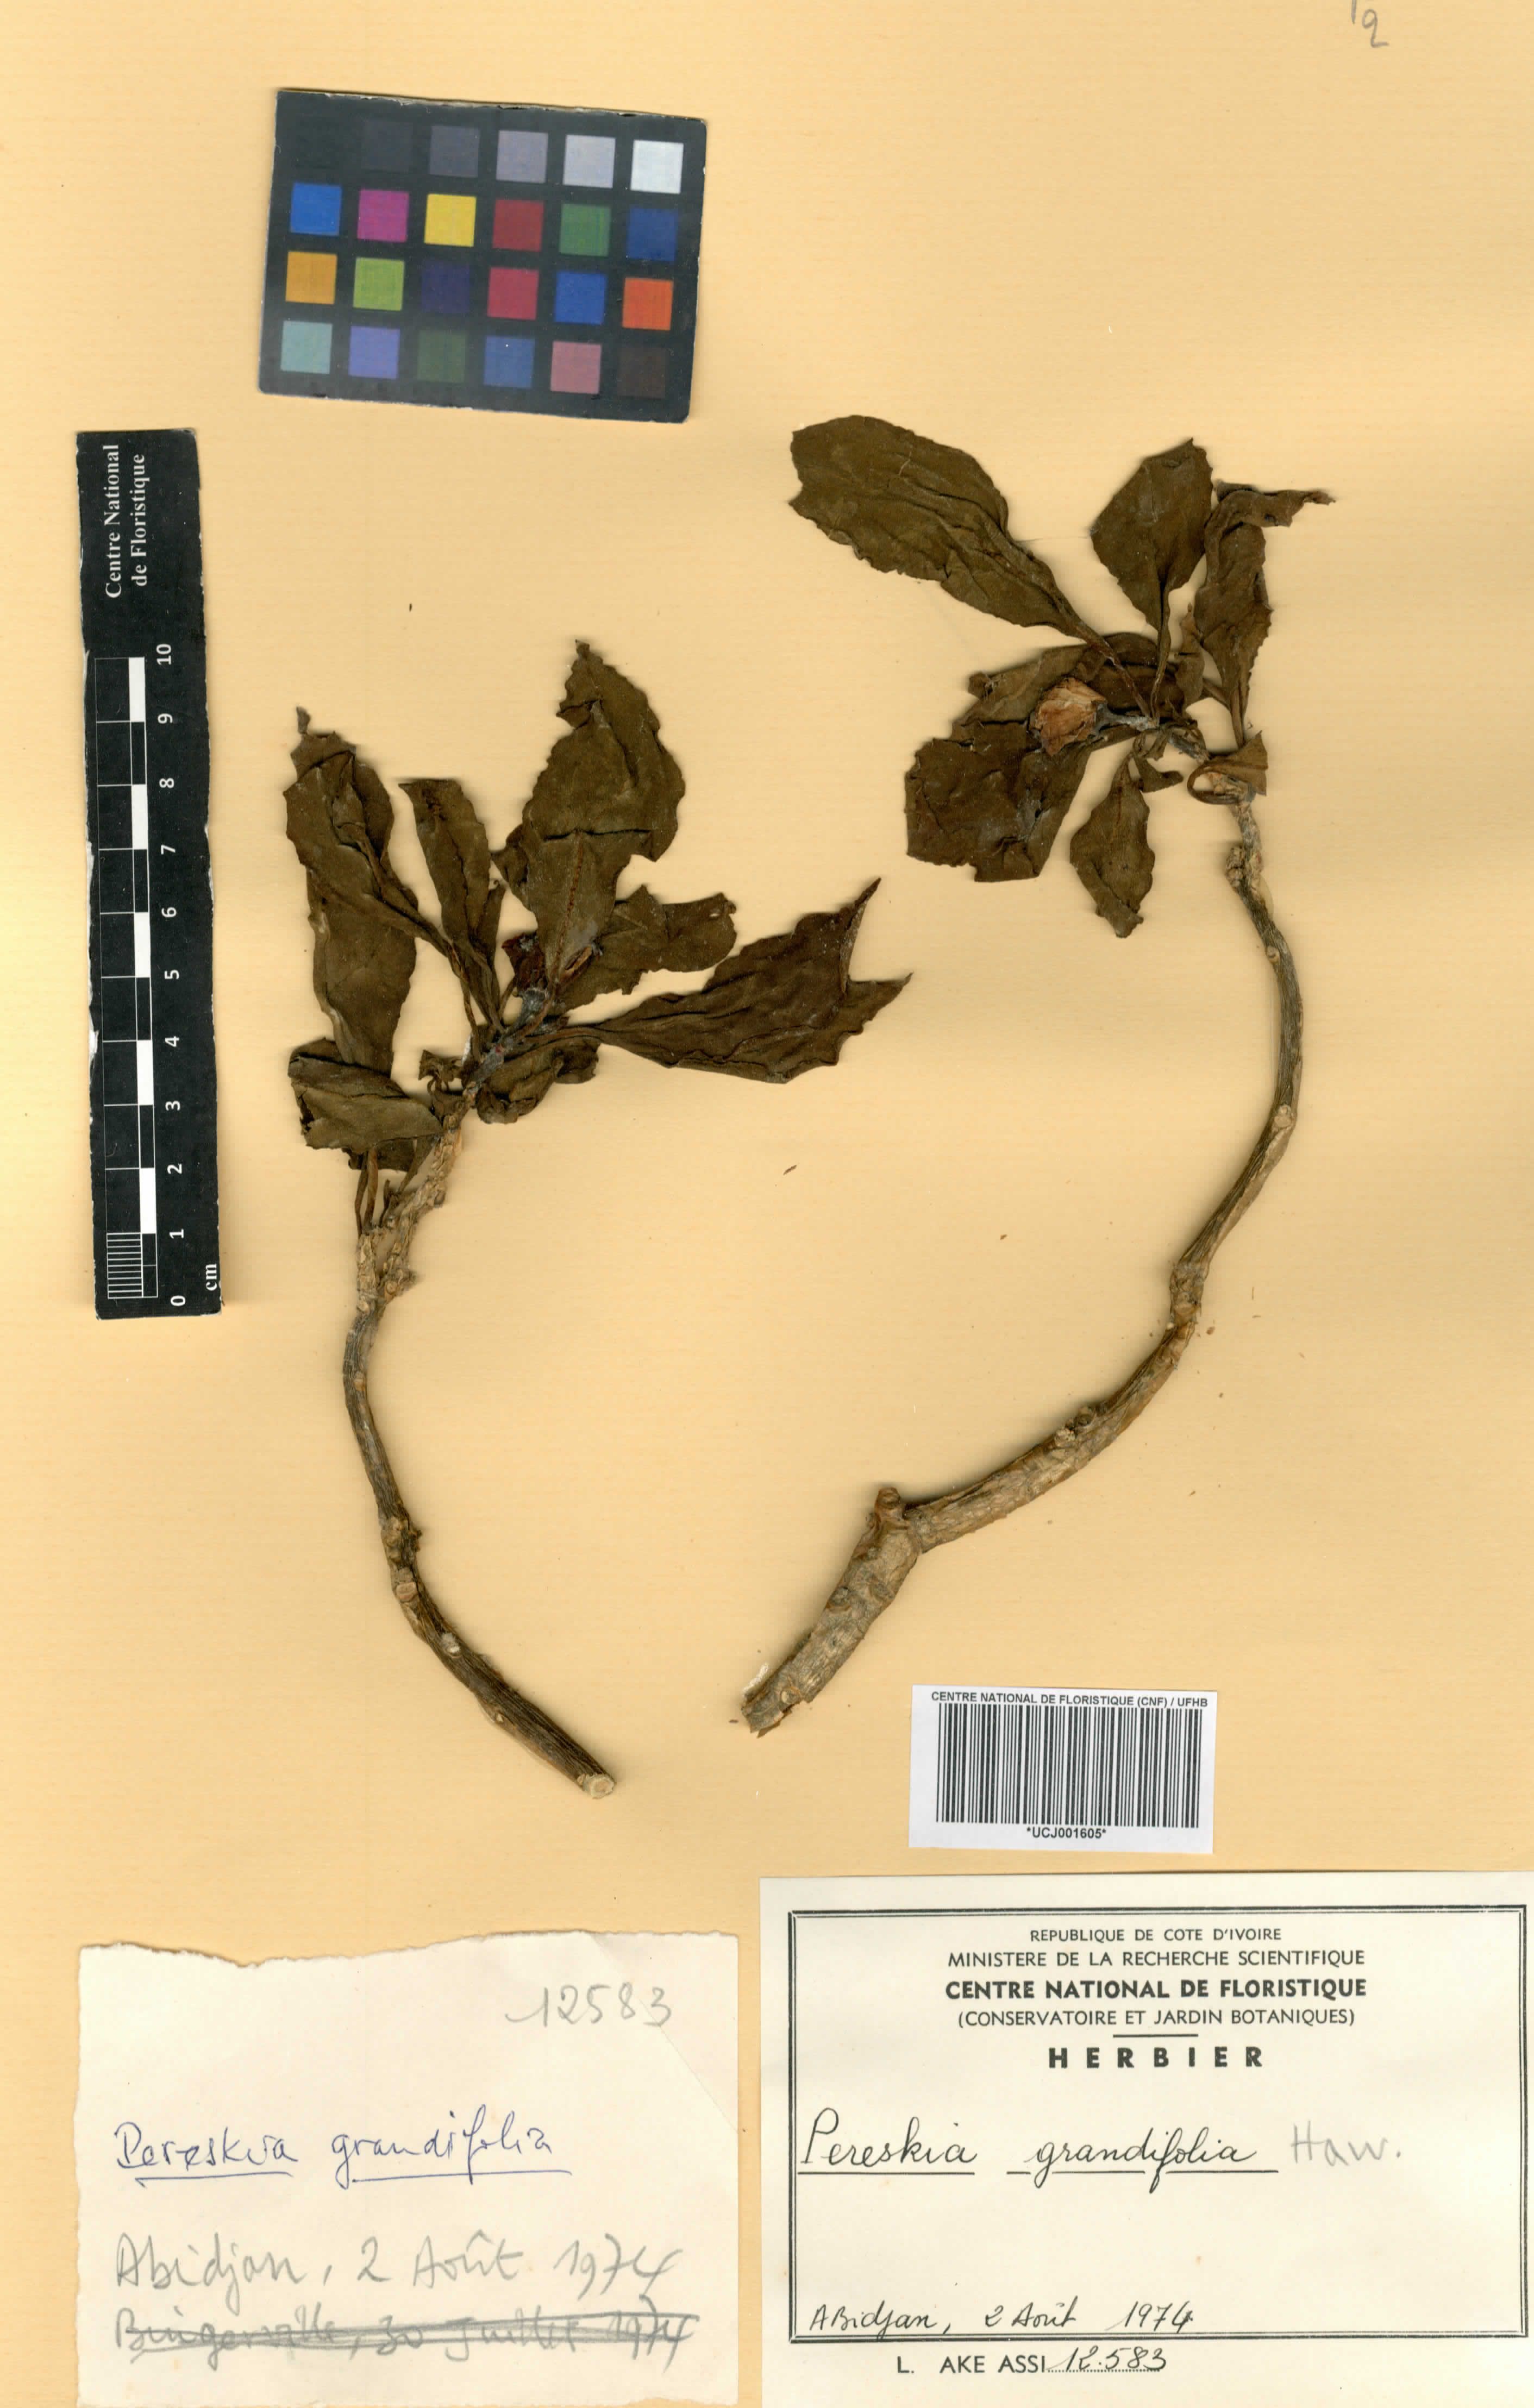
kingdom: Plantae
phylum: Tracheophyta
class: Magnoliopsida
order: Caryophyllales
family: Cactaceae
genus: Pereskia
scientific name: Pereskia grandifolia
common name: Rose cactus
